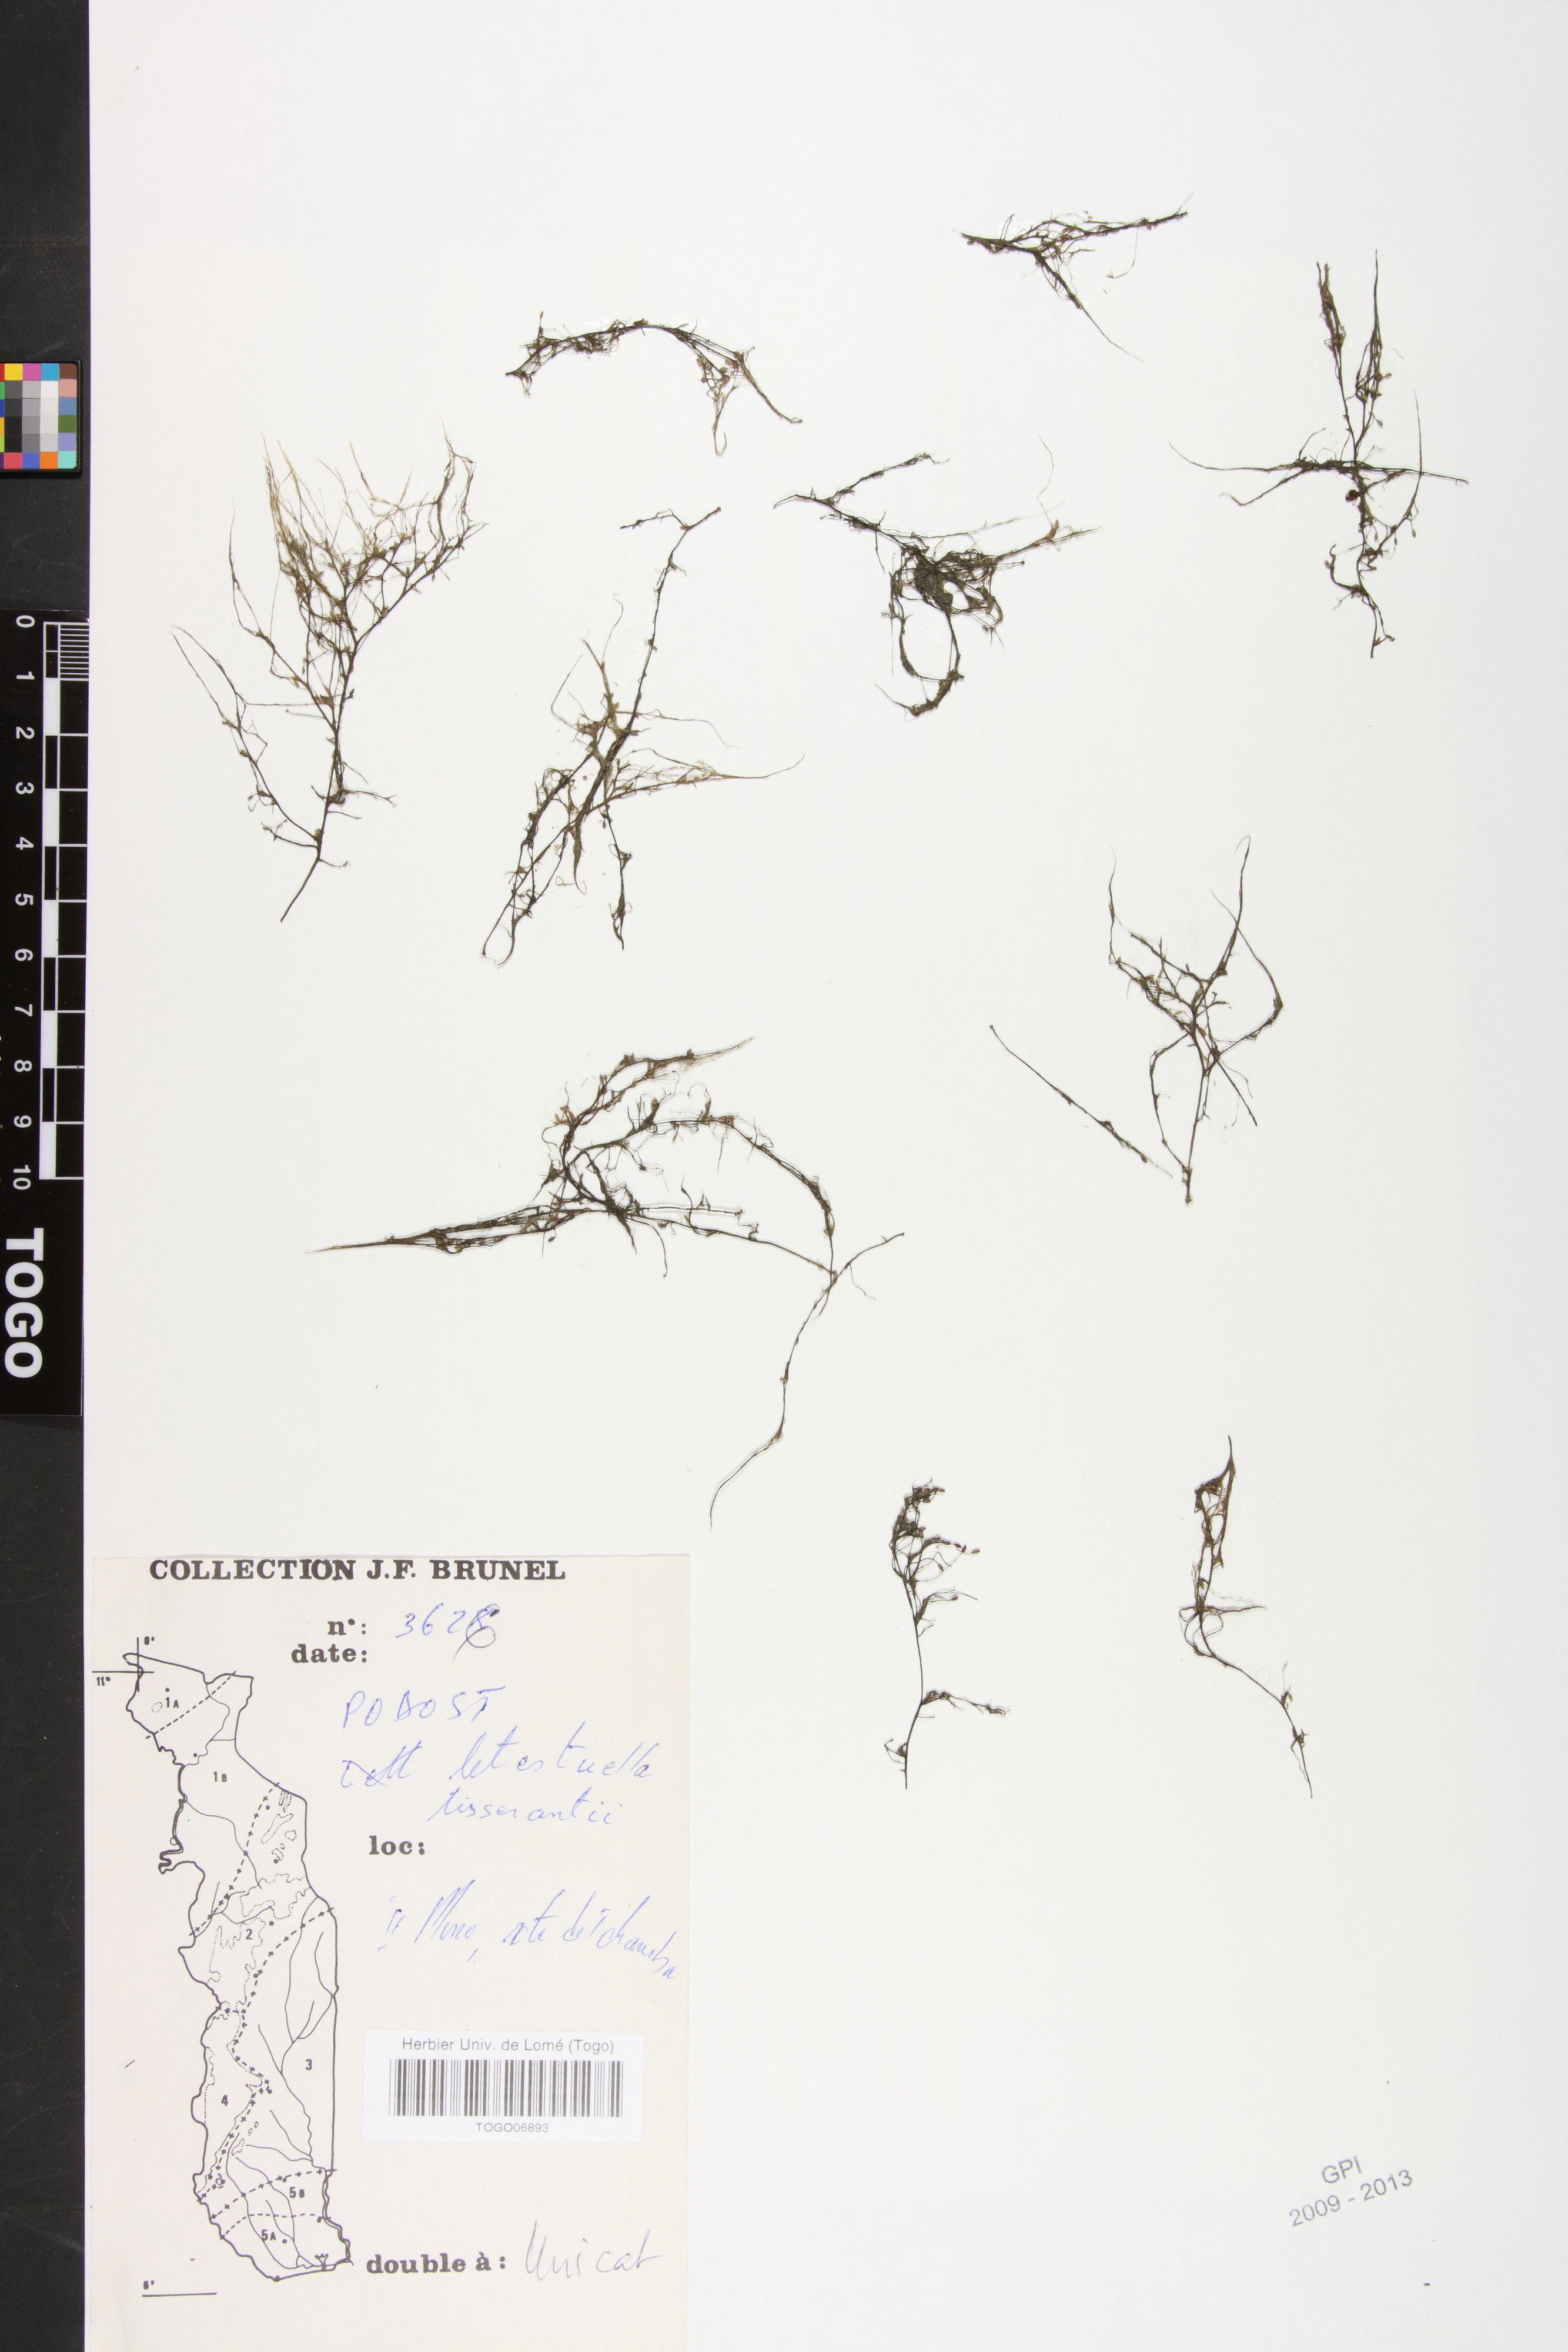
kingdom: Plantae
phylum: Tracheophyta
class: Magnoliopsida
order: Malpighiales
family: Podostemaceae
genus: Letestuella
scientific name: Letestuella tisserantii
